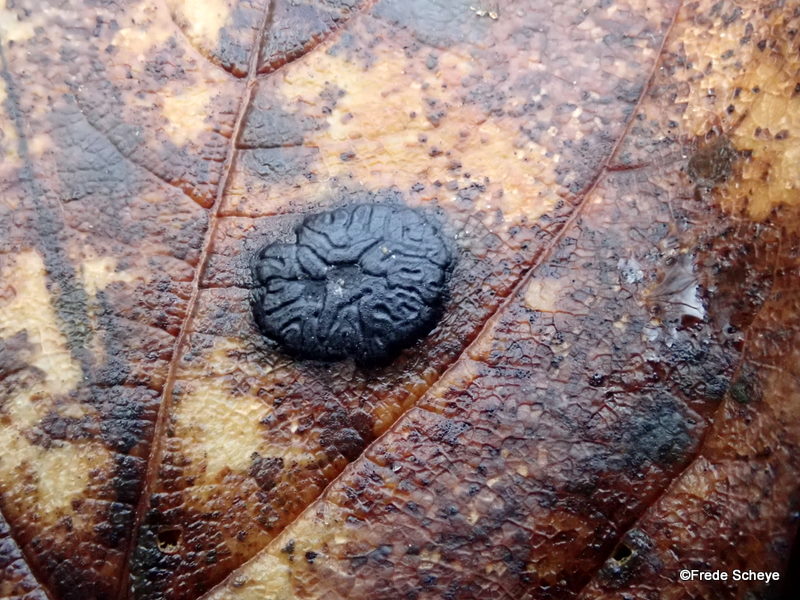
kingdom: Fungi
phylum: Ascomycota
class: Leotiomycetes
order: Rhytismatales
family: Rhytismataceae
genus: Rhytisma
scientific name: Rhytisma acerinum
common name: ahorn-rynkeplet
